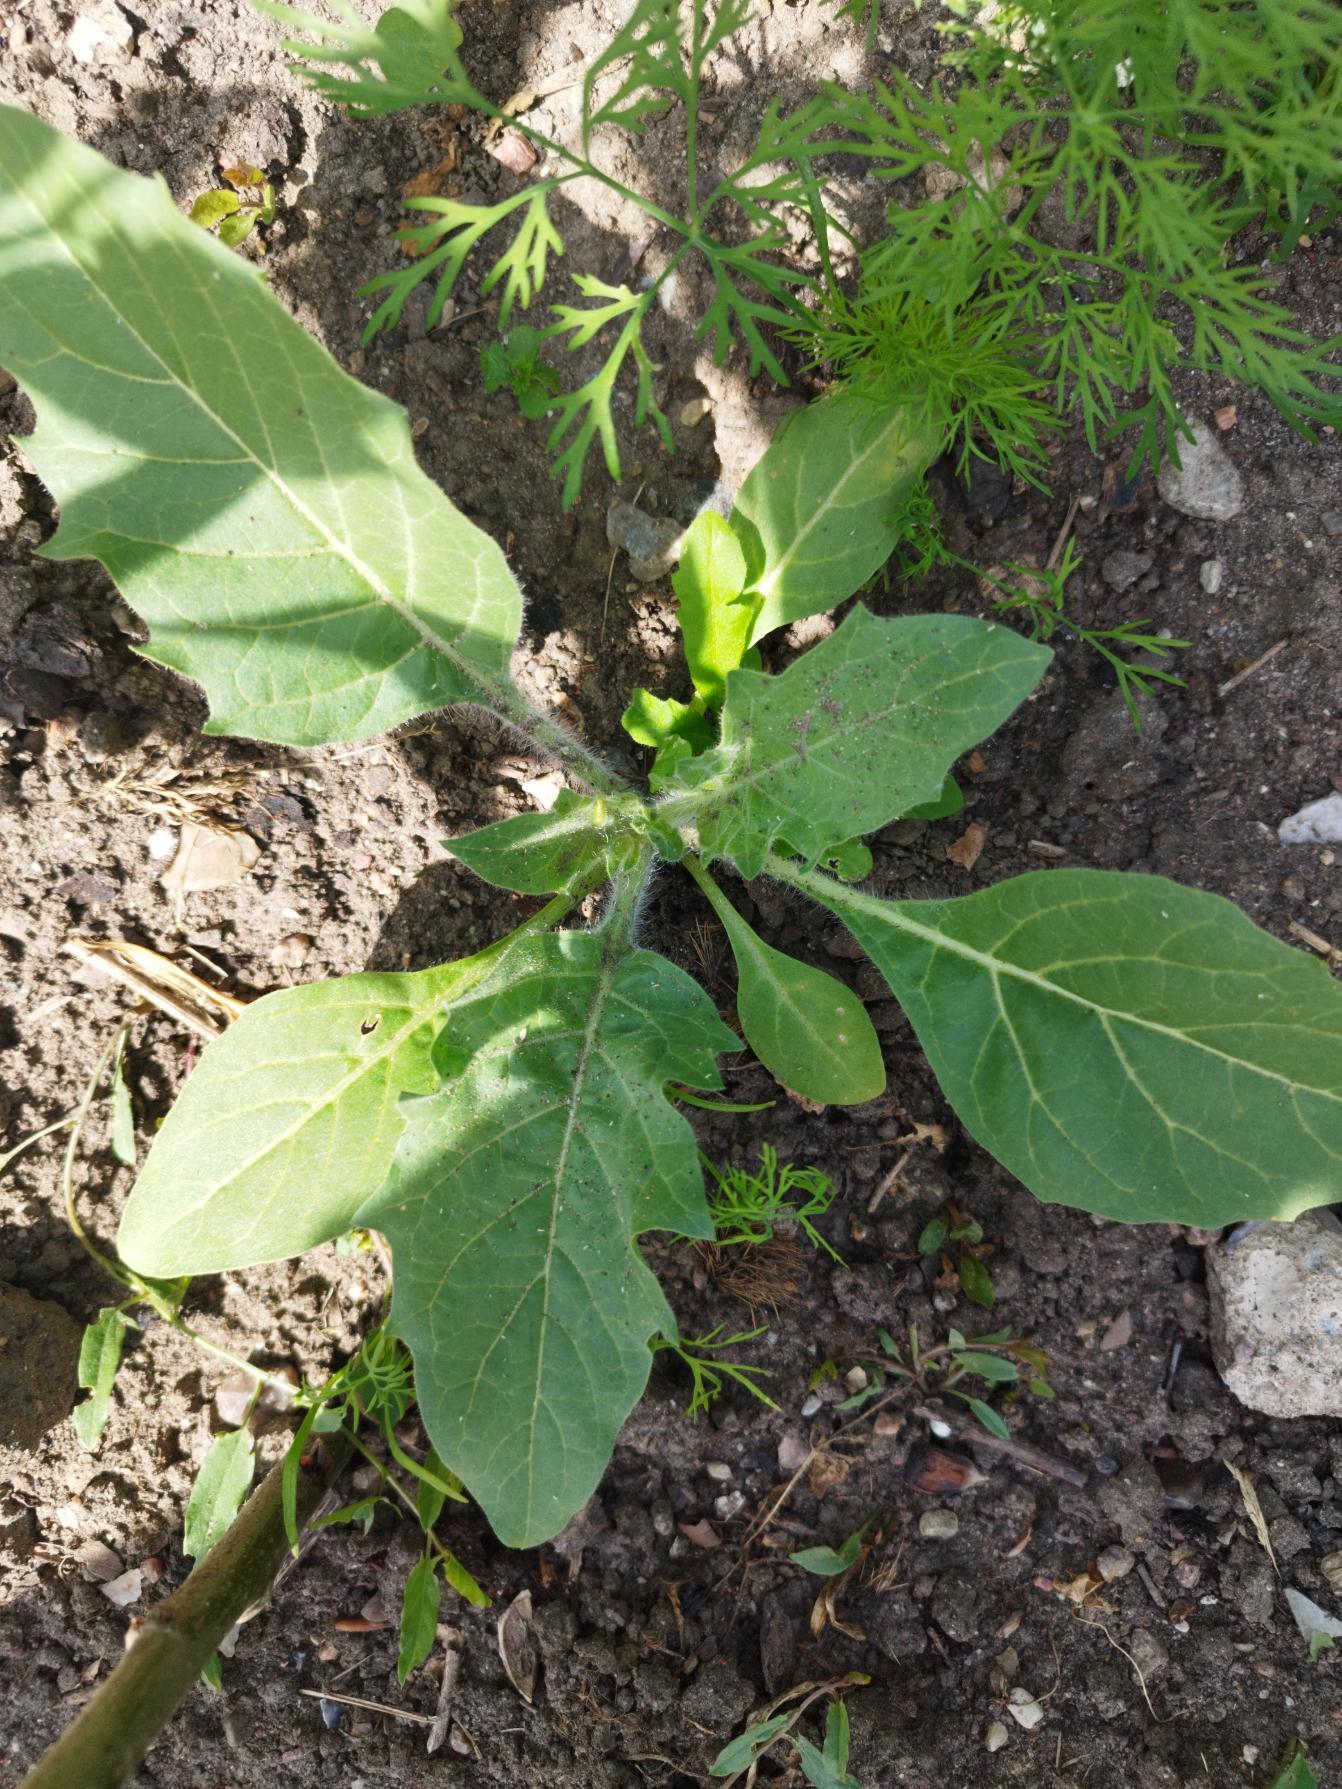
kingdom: Plantae
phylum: Tracheophyta
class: Magnoliopsida
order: Solanales
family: Solanaceae
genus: Hyoscyamus
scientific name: Hyoscyamus niger
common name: Bulmeurt
